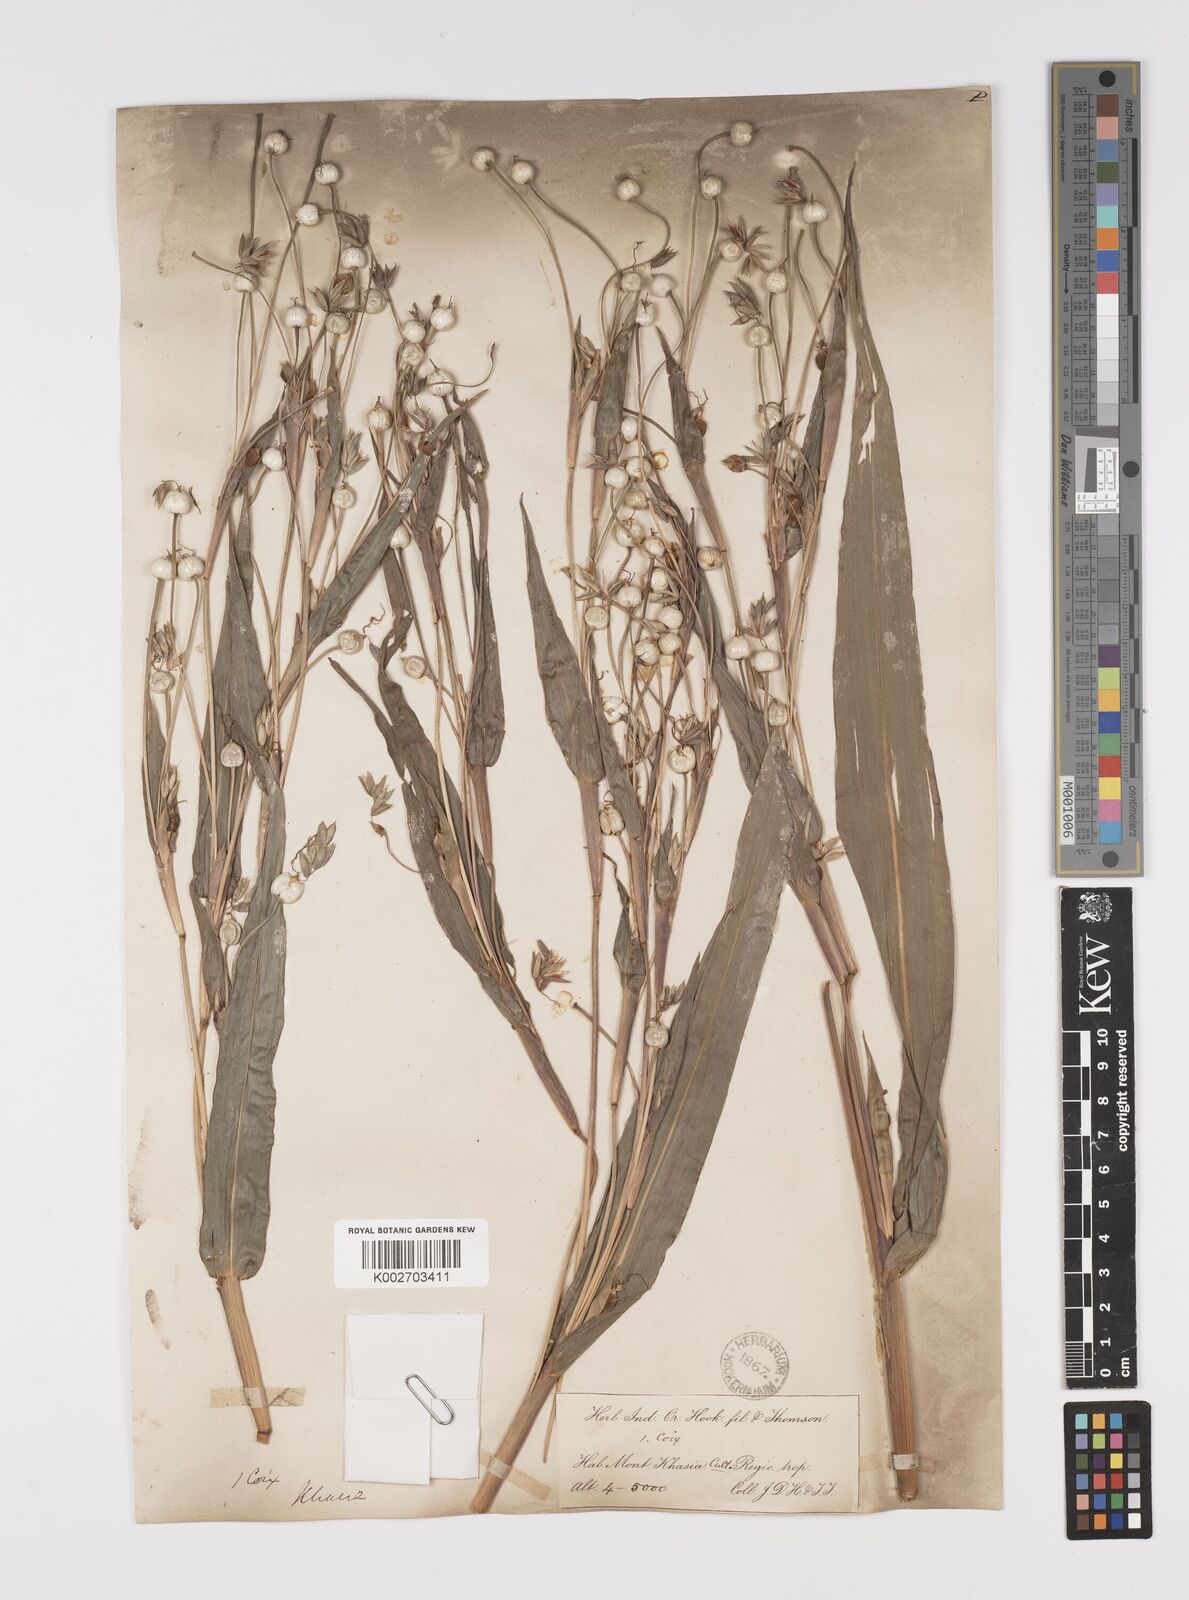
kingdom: Plantae
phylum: Tracheophyta
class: Liliopsida
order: Poales
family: Poaceae
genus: Coix
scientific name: Coix lacryma-jobi
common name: Job's tears
